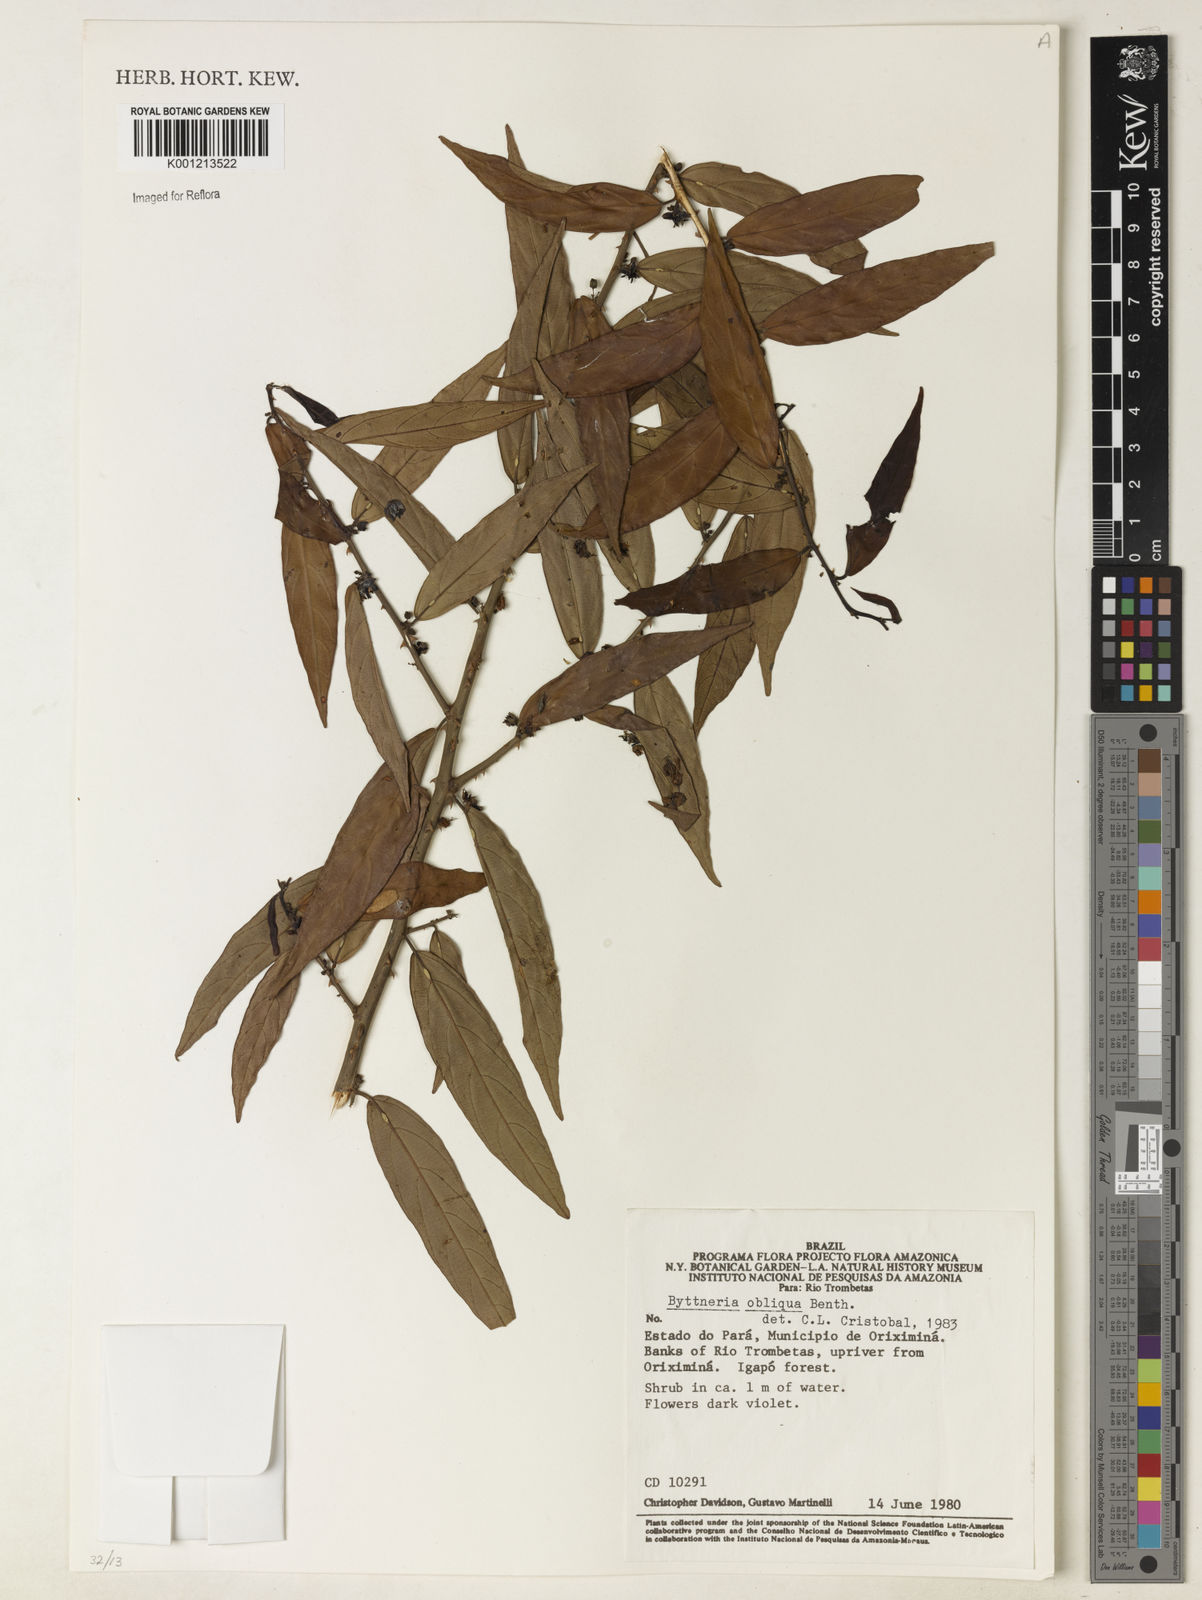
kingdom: Plantae
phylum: Tracheophyta
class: Magnoliopsida
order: Malvales
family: Malvaceae
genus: Byttneria
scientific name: Byttneria obliqua
